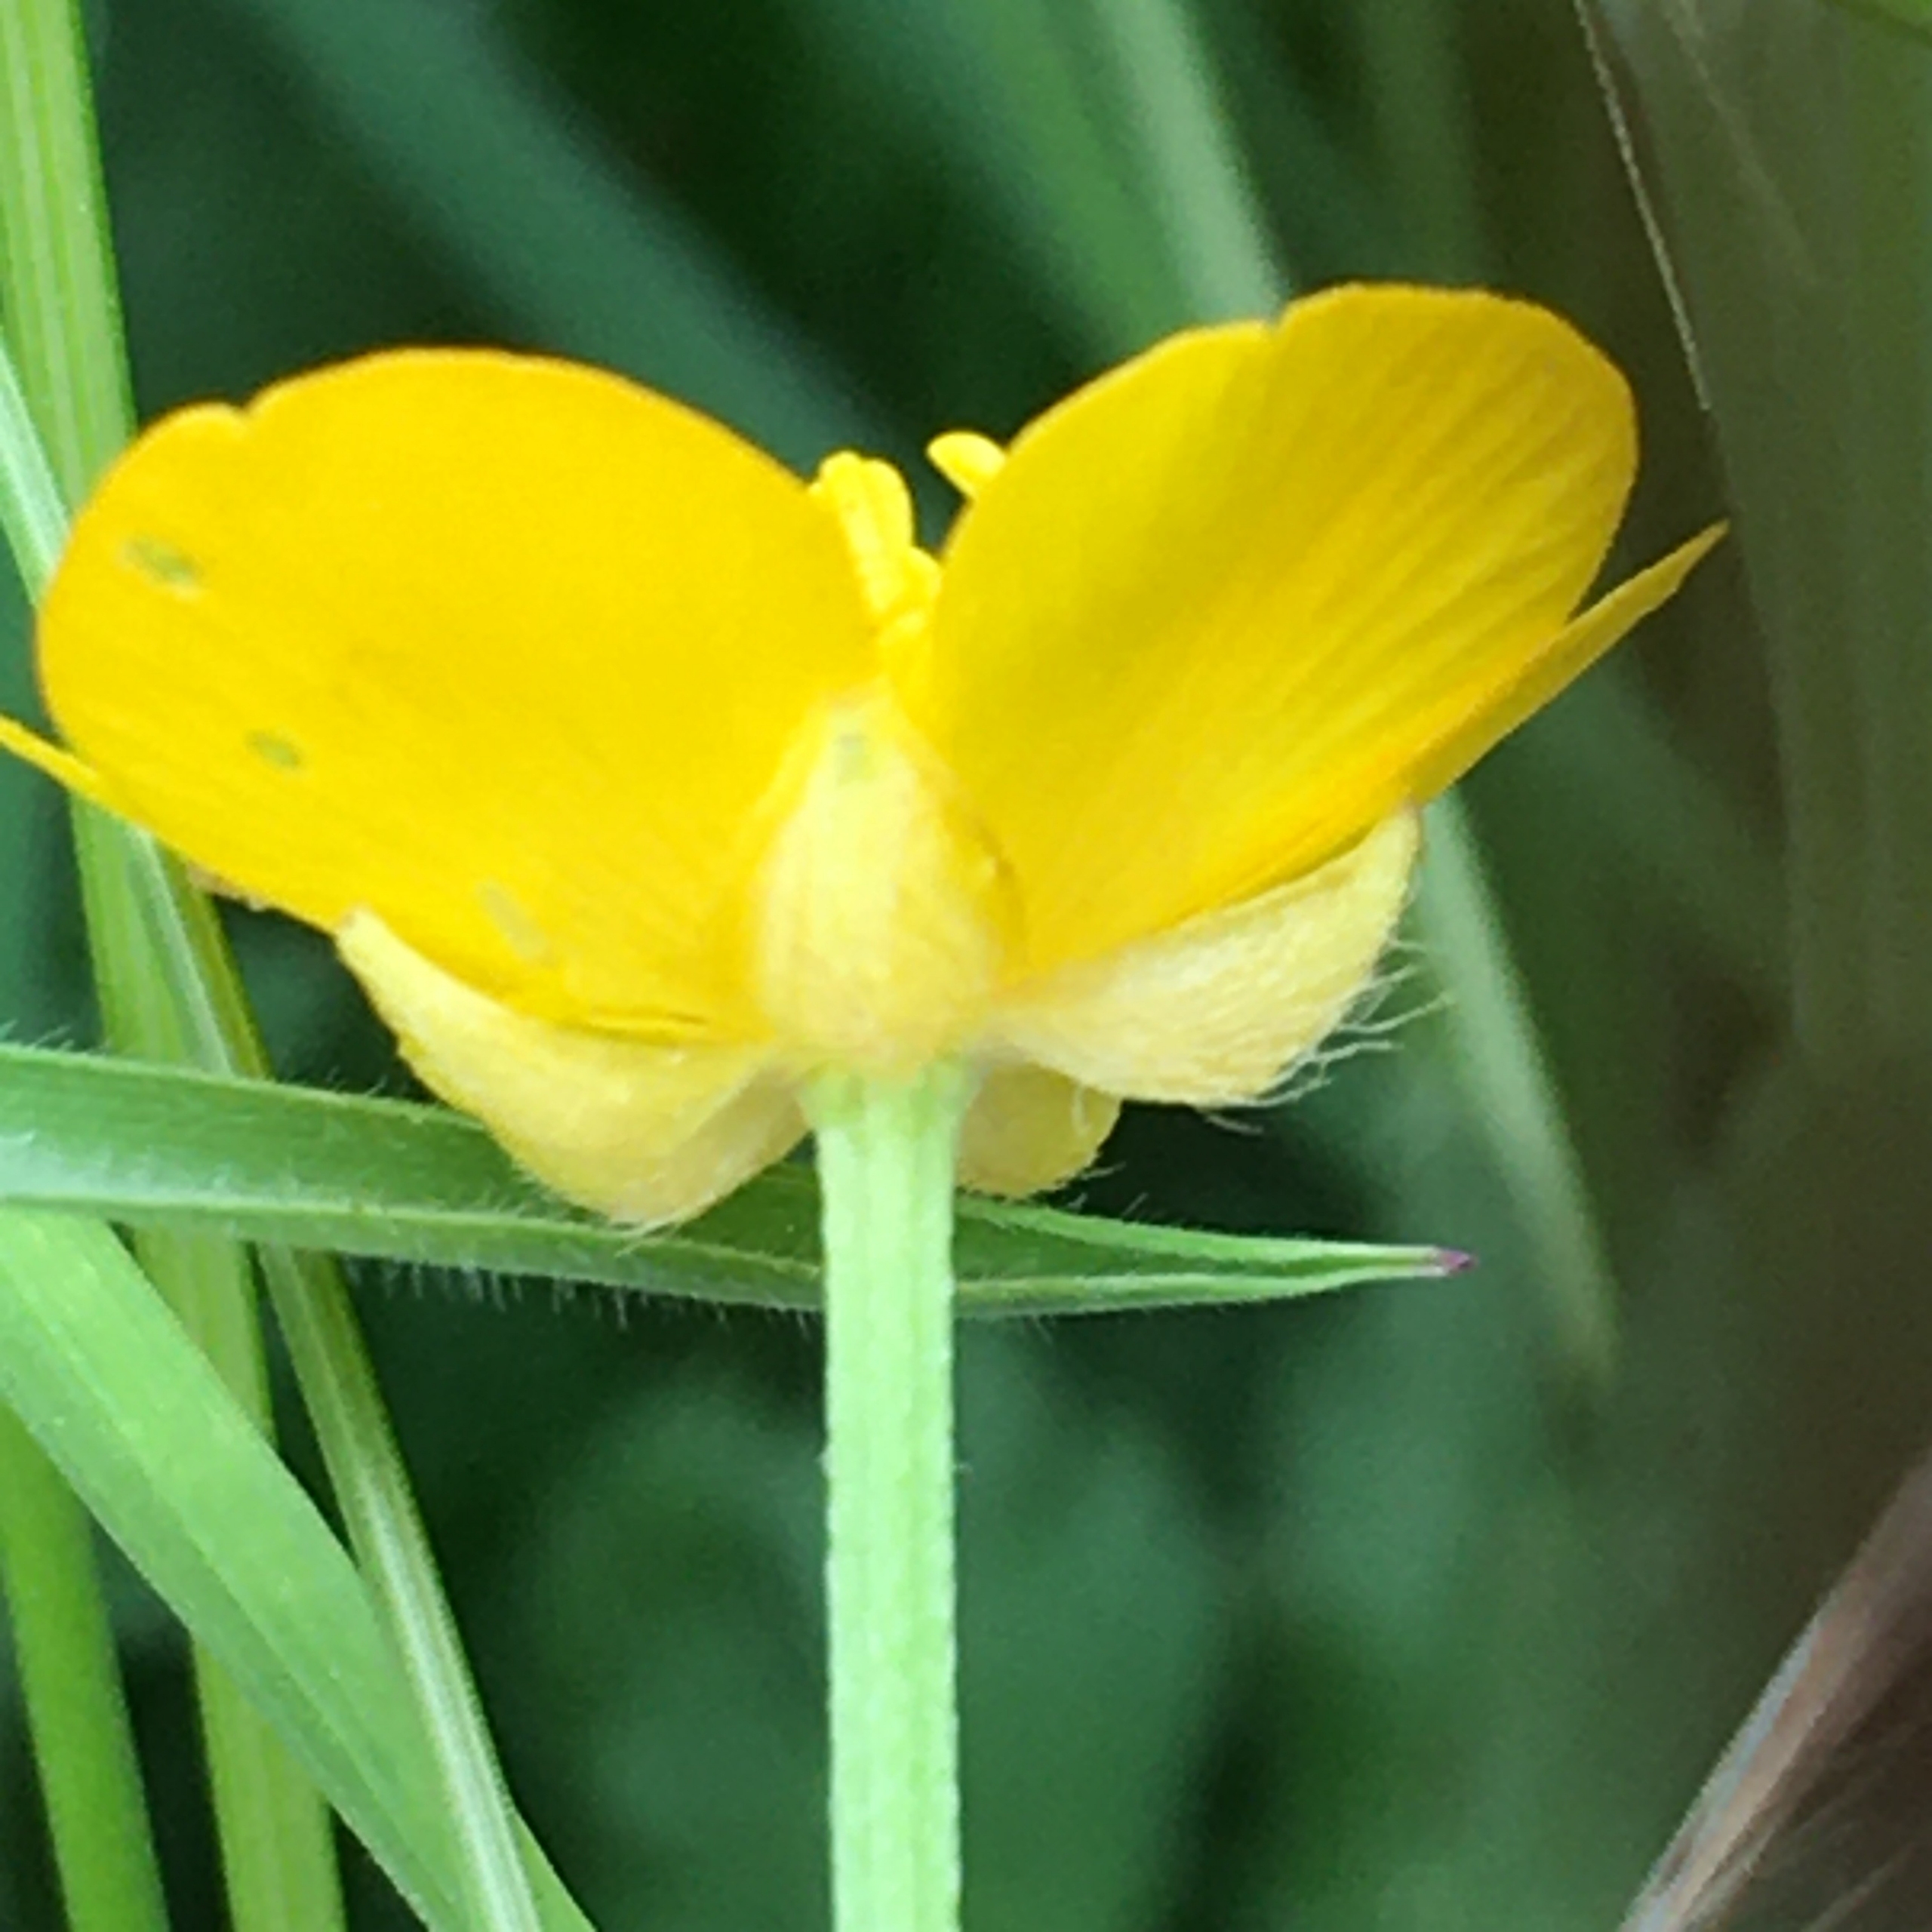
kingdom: Plantae
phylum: Tracheophyta
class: Magnoliopsida
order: Ranunculales
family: Ranunculaceae
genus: Ranunculus
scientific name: Ranunculus repens
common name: Lav ranunkel
